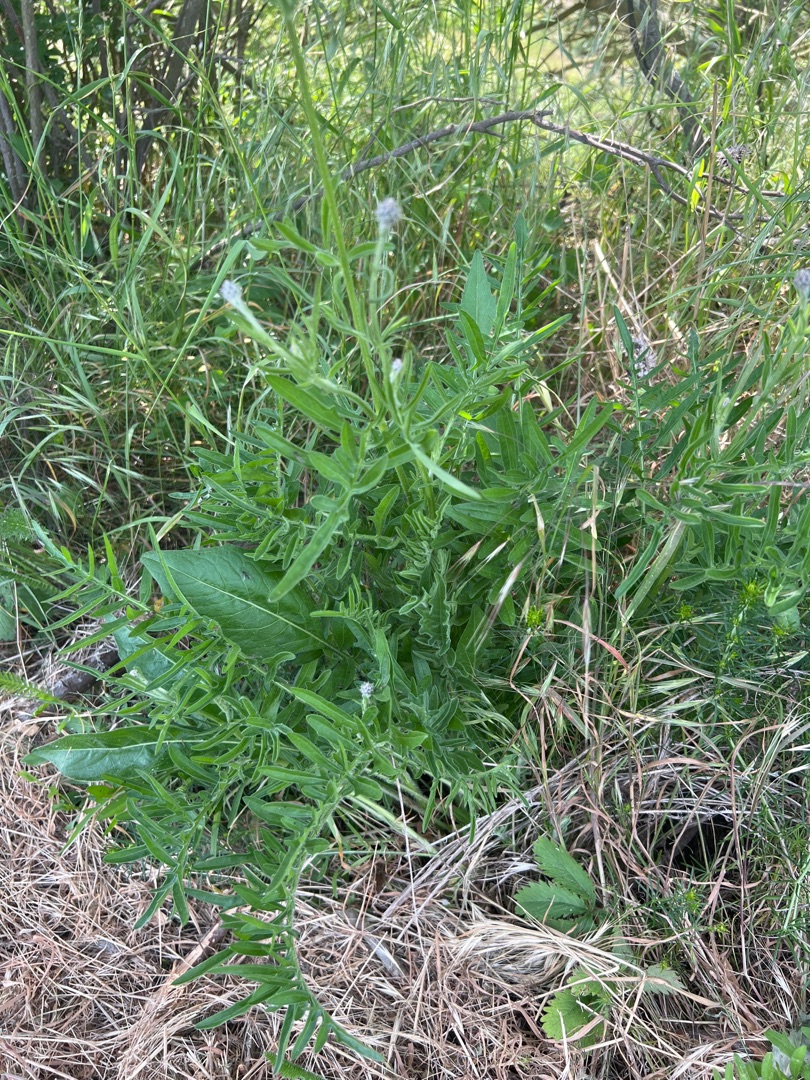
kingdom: Plantae
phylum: Tracheophyta
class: Magnoliopsida
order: Asterales
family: Asteraceae
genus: Centaurea
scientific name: Centaurea scabiosa
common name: Stor knopurt
